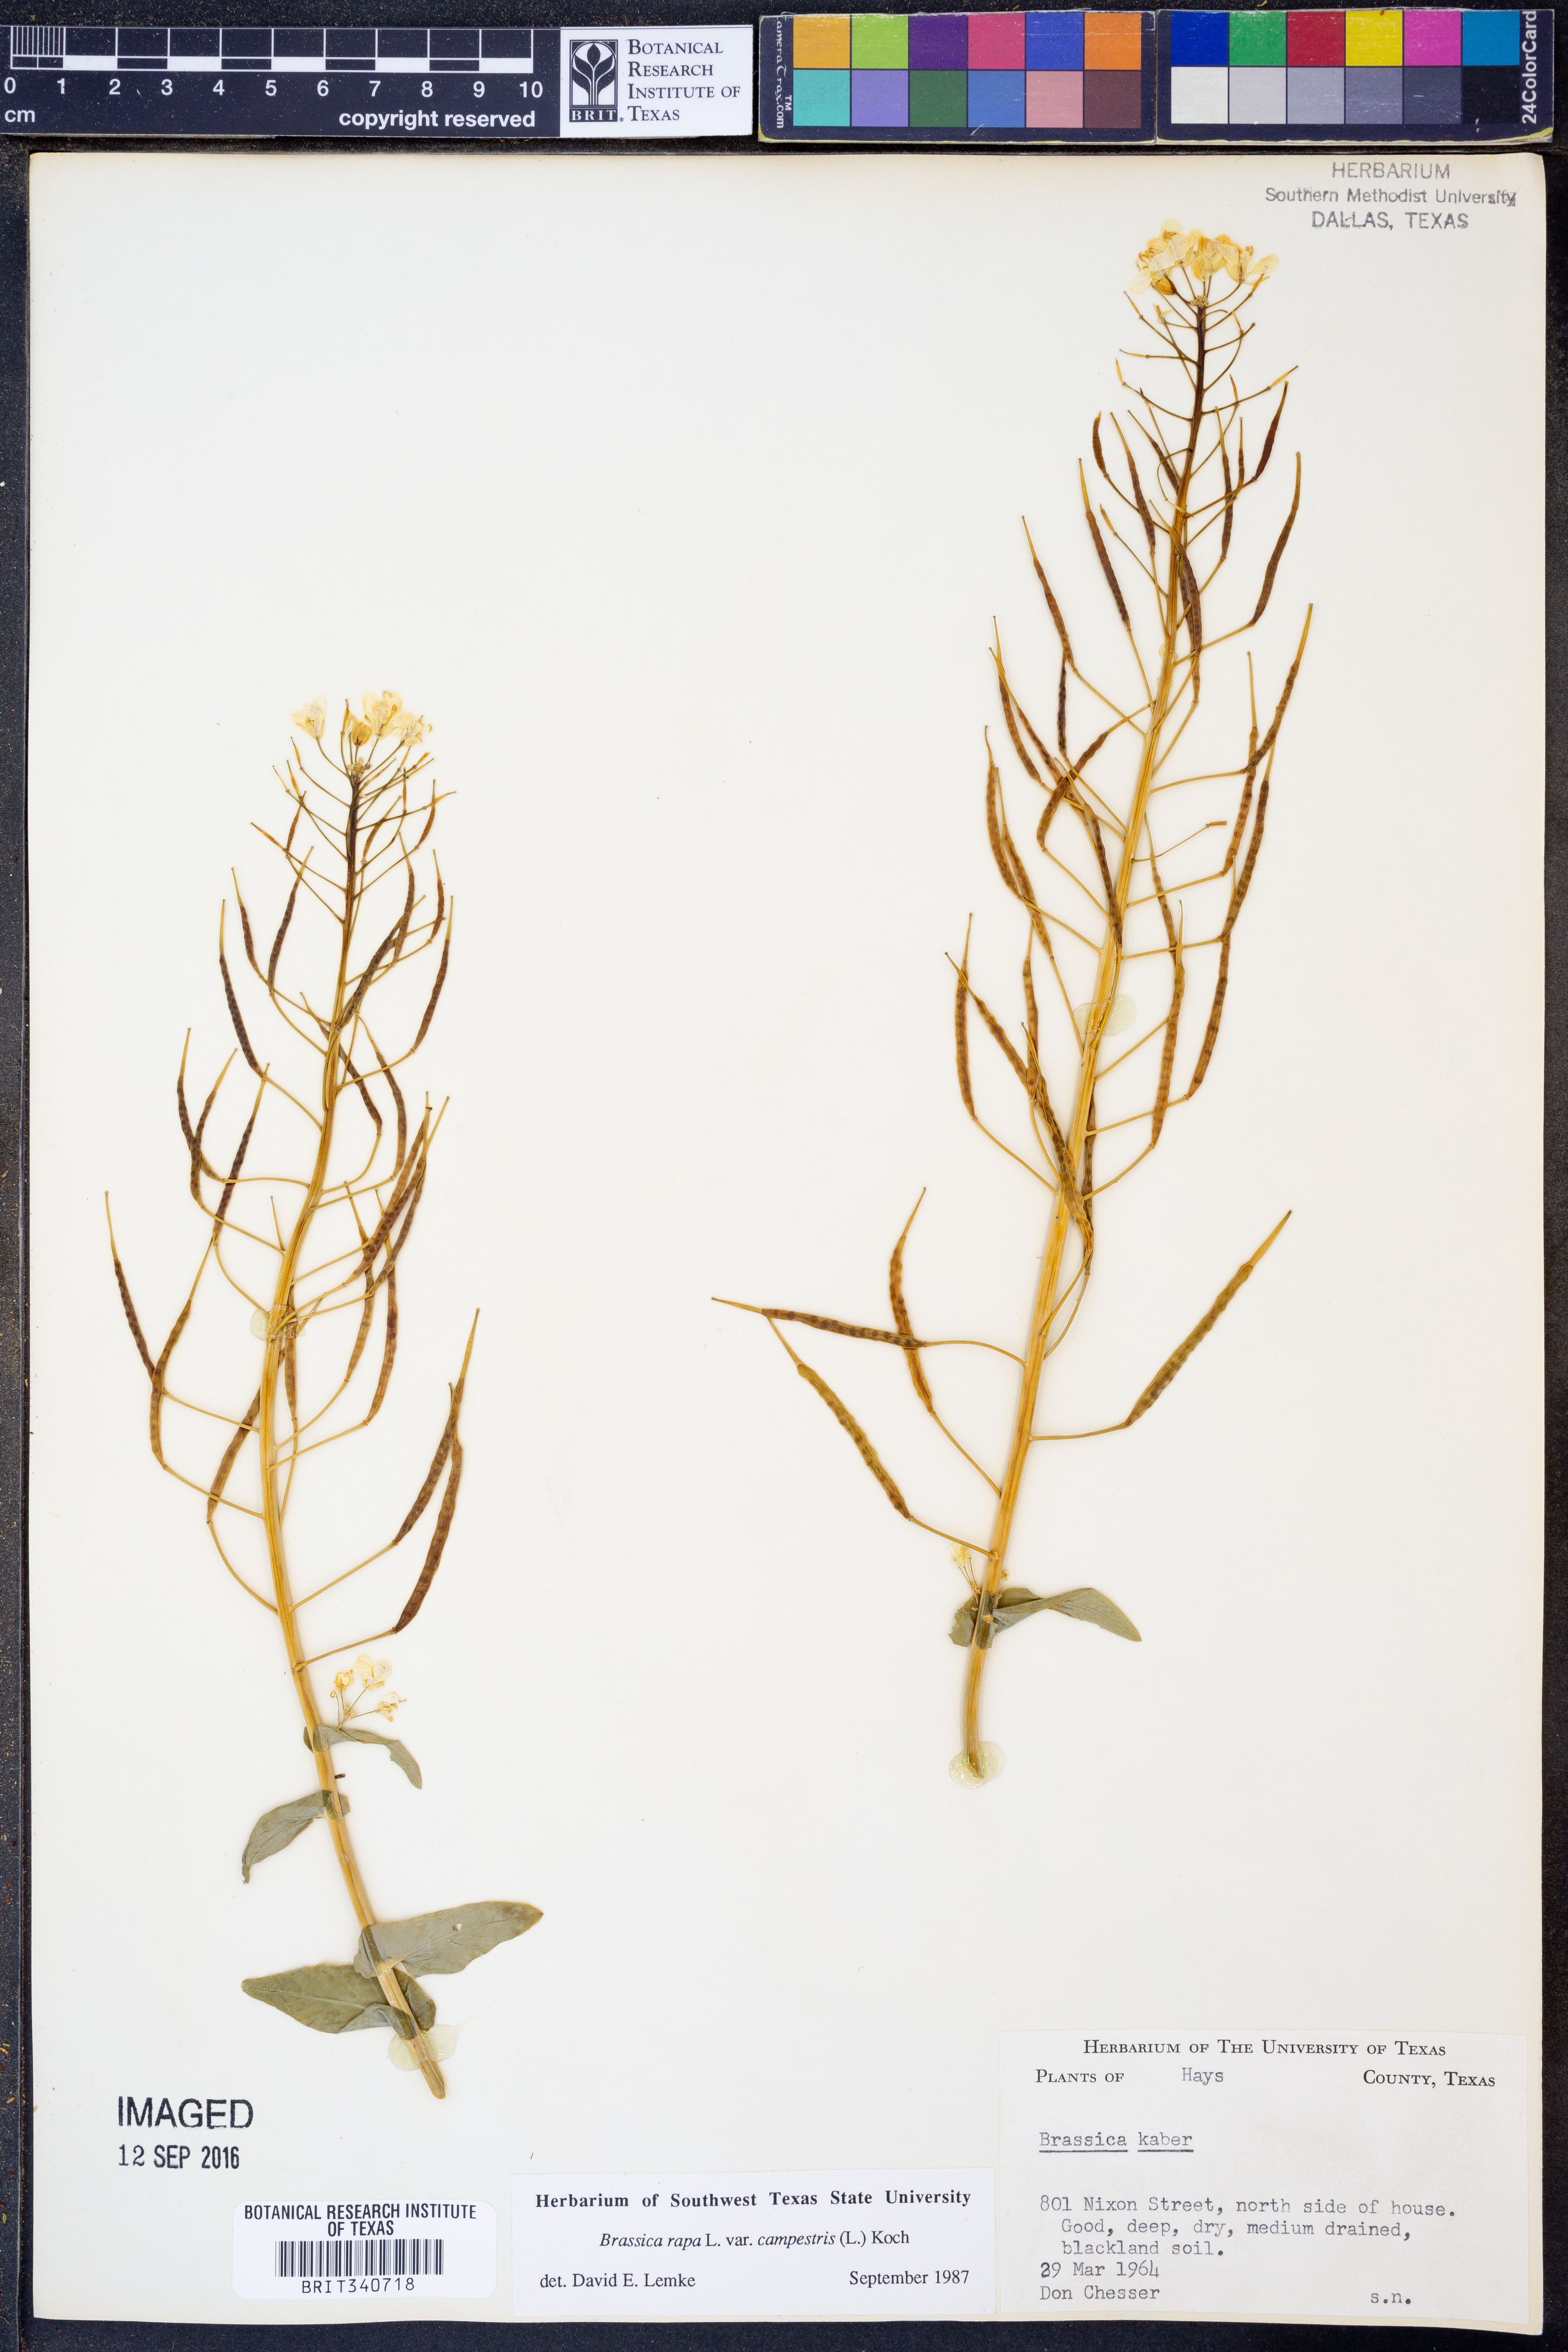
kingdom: Plantae
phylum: Tracheophyta
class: Magnoliopsida
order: Brassicales
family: Brassicaceae
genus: Brassica
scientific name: Brassica rapa
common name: Field mustard
